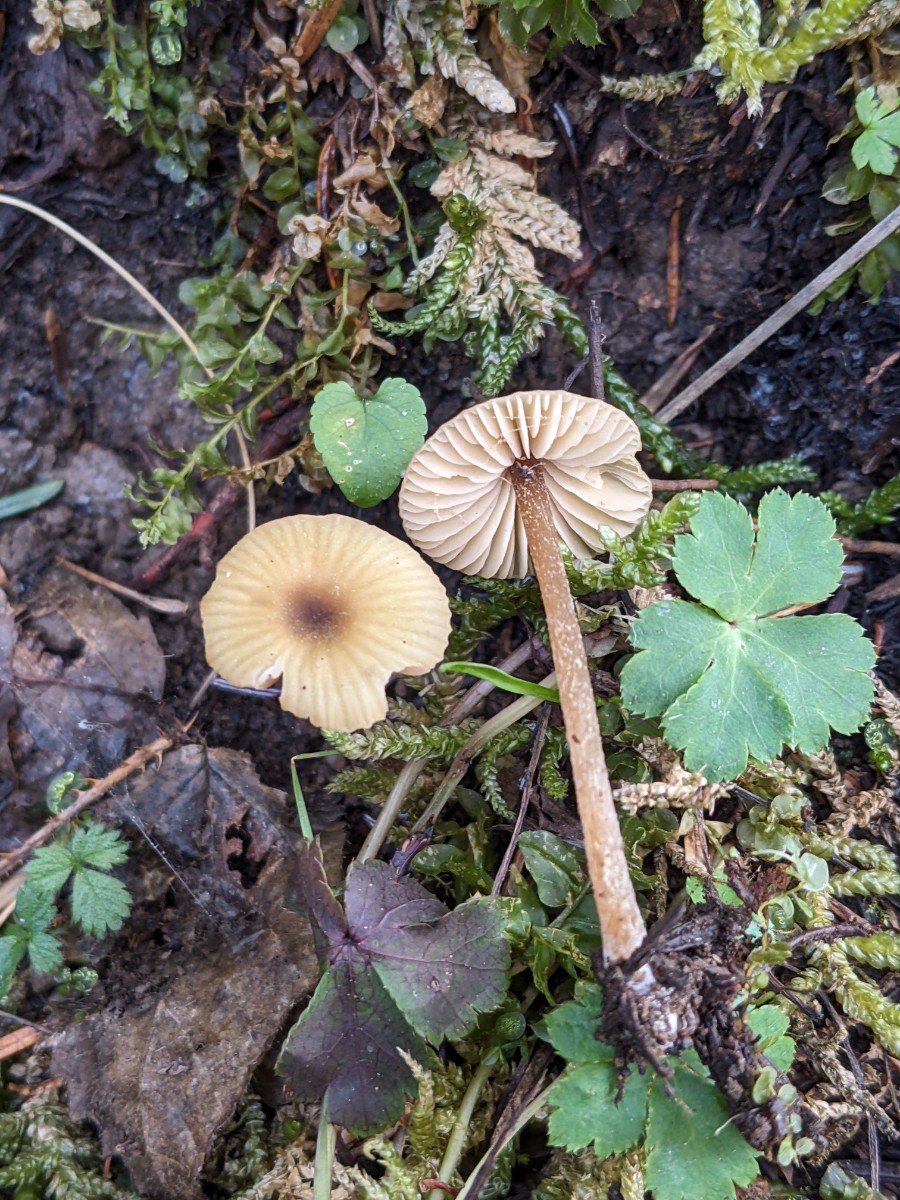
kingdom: Fungi
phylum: Basidiomycota
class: Agaricomycetes
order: Agaricales
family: Entolomataceae
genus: Entoloma
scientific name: Entoloma pleopodium
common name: duftende rødblad
